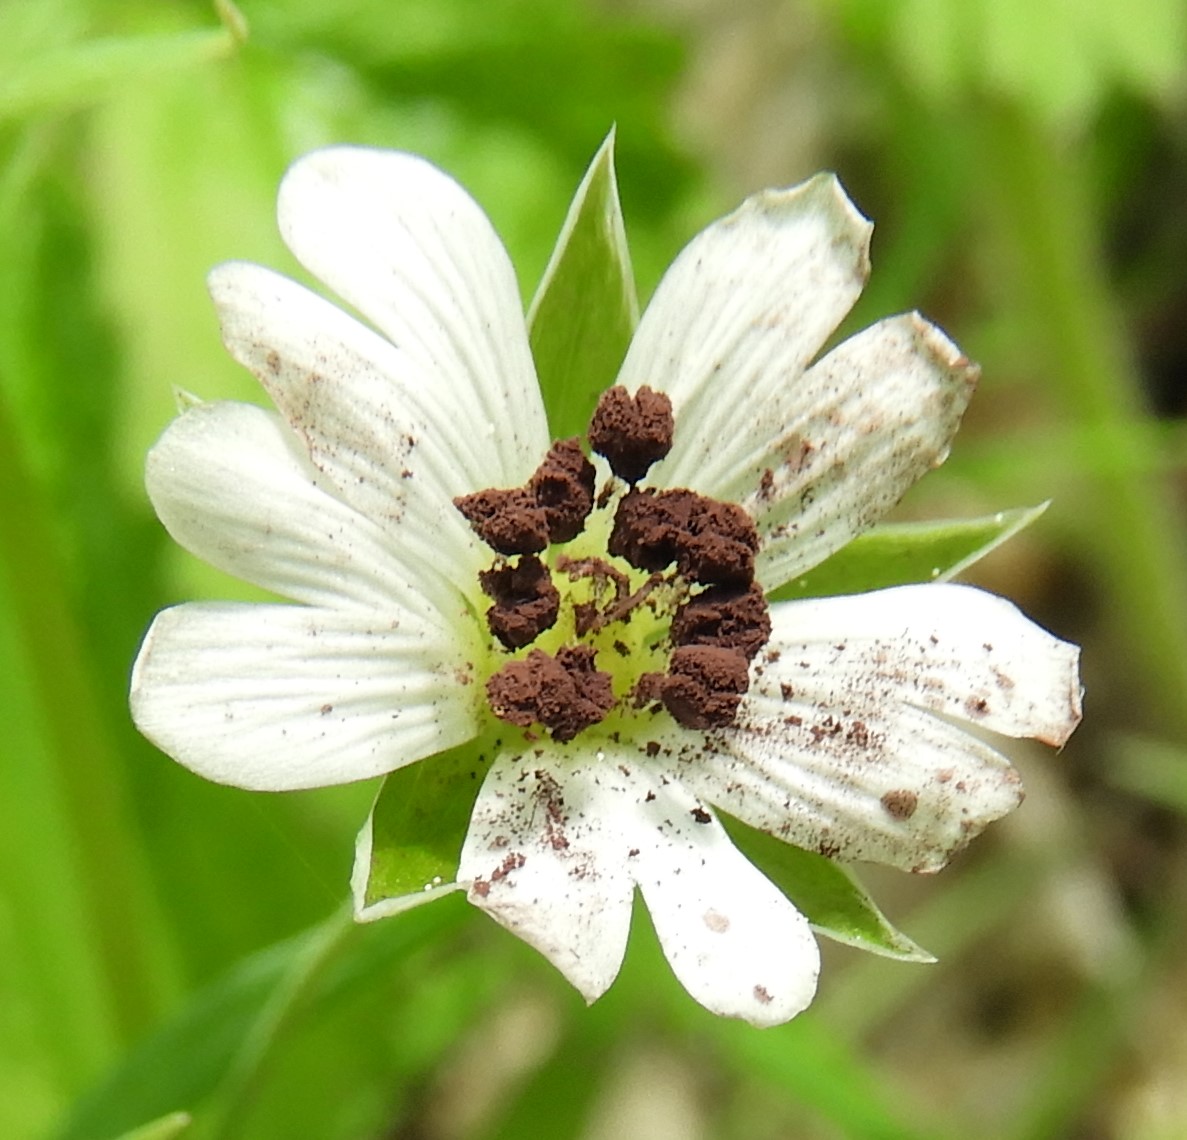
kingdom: Fungi
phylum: Basidiomycota
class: Microbotryomycetes
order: Microbotryales
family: Microbotryaceae
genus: Microbotryum
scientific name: Microbotryum stellariae
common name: fladstjerne-støvbladrust
